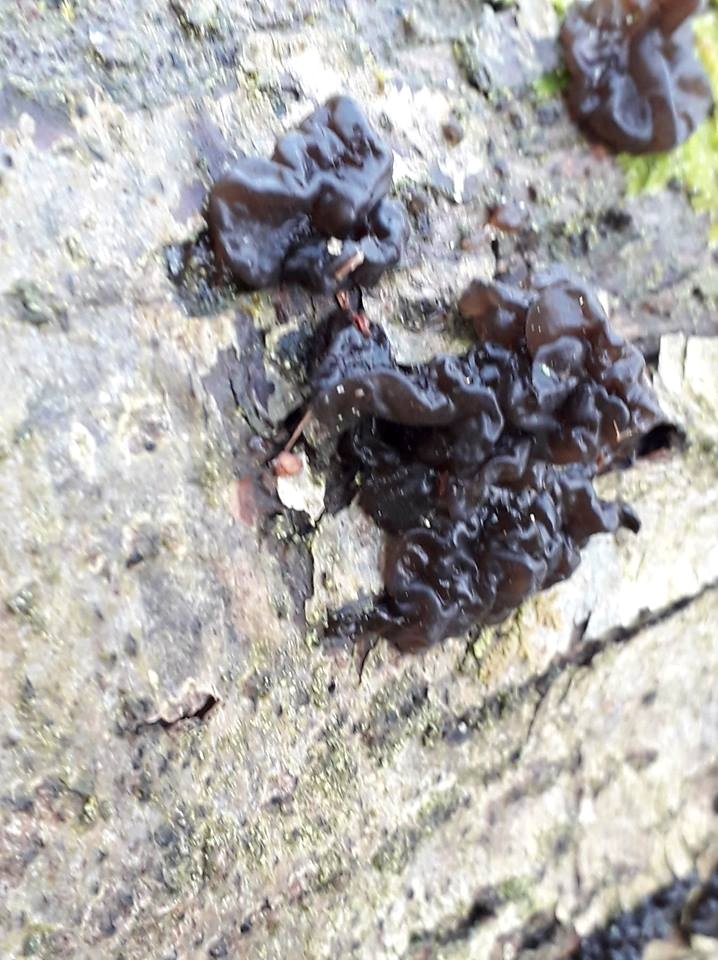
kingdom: Fungi
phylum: Basidiomycota
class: Agaricomycetes
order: Auriculariales
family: Auriculariaceae
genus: Exidia
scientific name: Exidia nigricans
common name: almindelig bævretop
